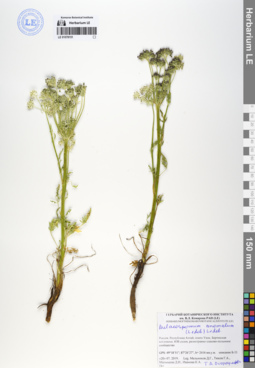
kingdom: Plantae
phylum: Tracheophyta
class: Magnoliopsida
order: Apiales
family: Apiaceae
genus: Aulacospermum
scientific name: Aulacospermum anomalum
